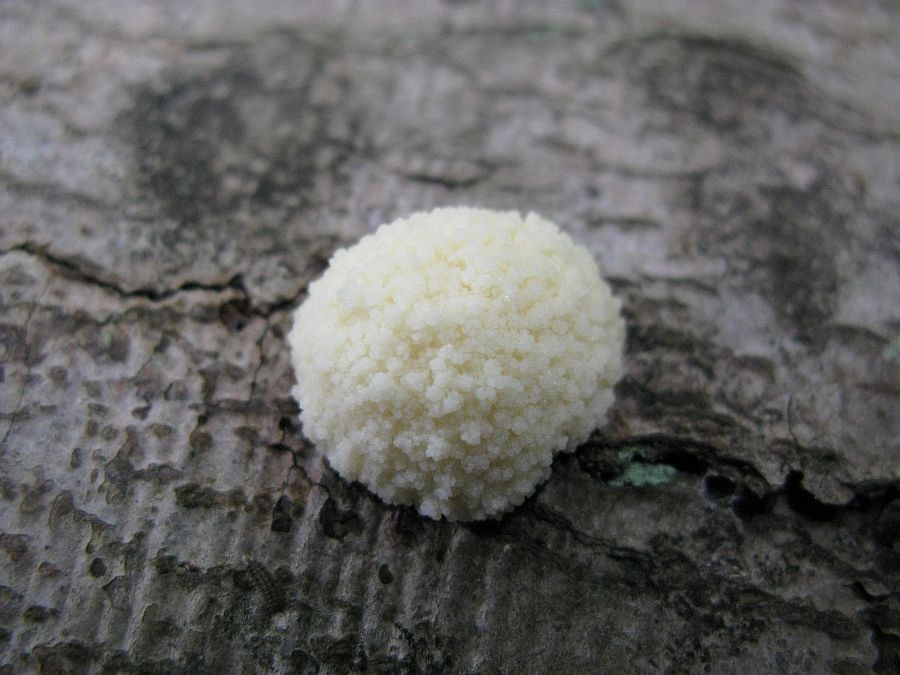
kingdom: Protozoa
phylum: Mycetozoa
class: Myxomycetes
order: Cribrariales
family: Tubiferaceae
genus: Reticularia
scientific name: Reticularia lycoperdon
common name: skinnende støvpude
